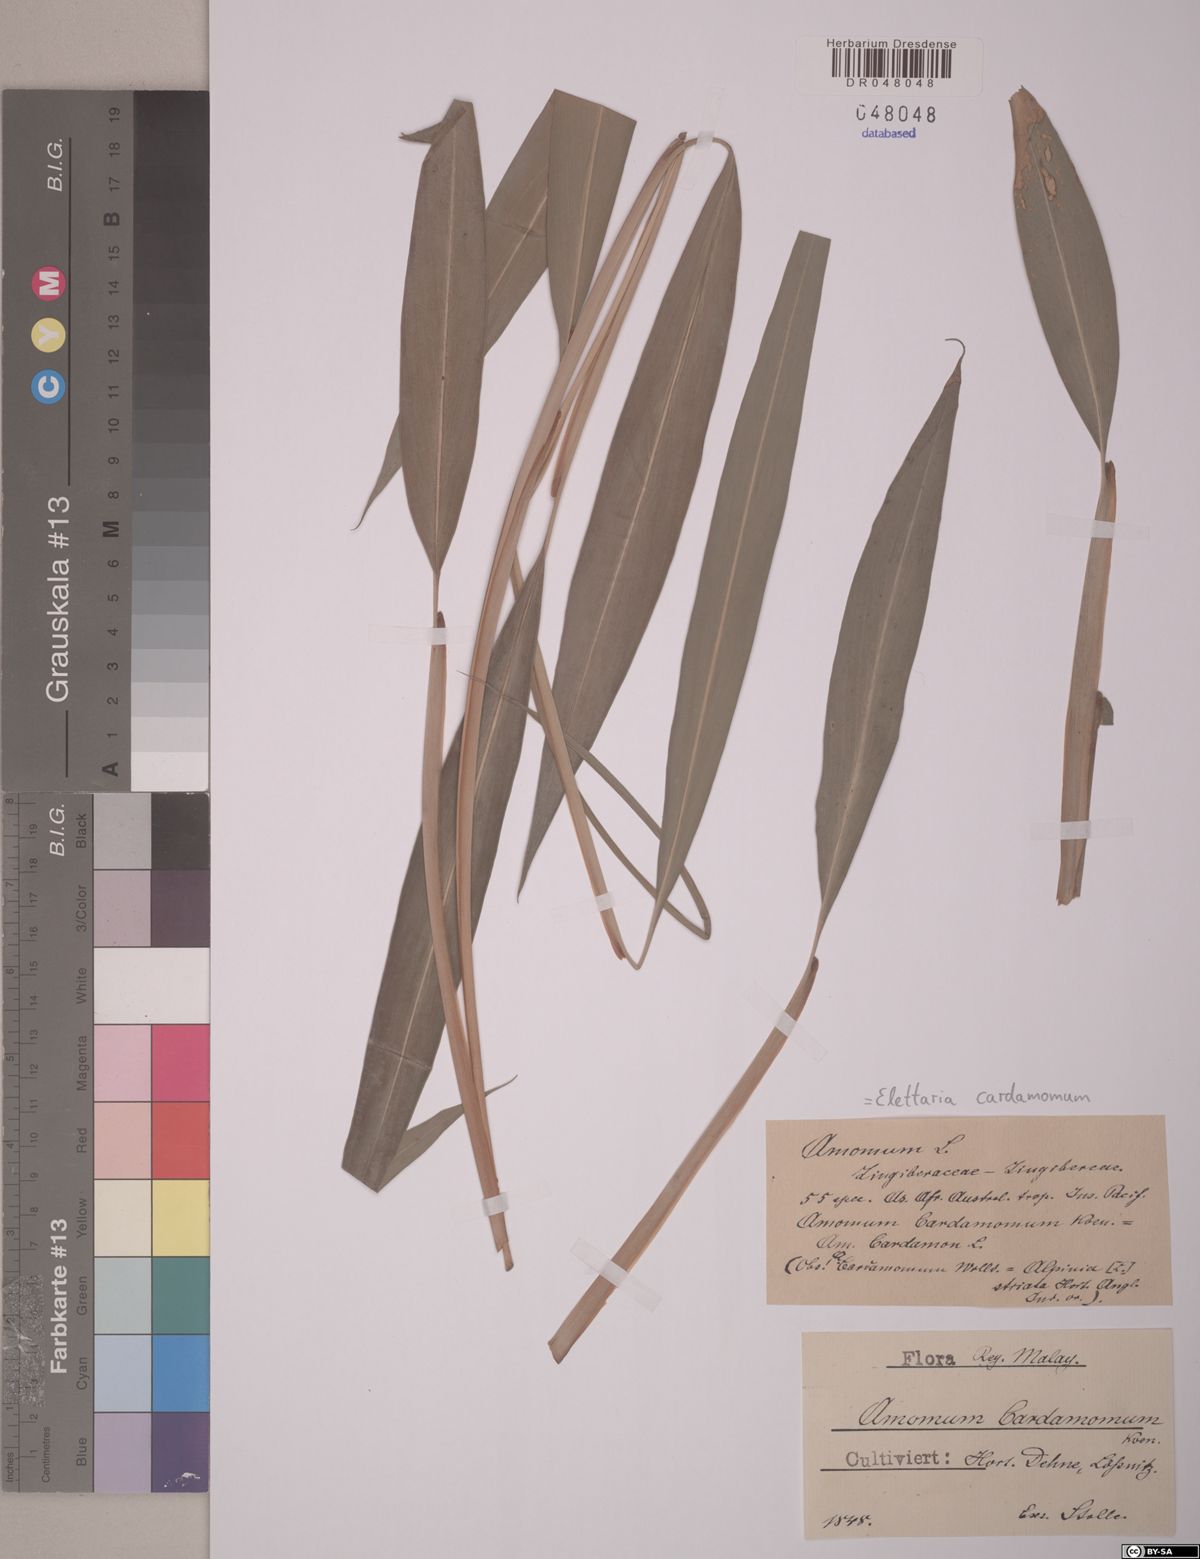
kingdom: Plantae
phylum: Tracheophyta
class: Liliopsida
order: Zingiberales
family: Zingiberaceae
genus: Elettaria
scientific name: Elettaria cardamomum
